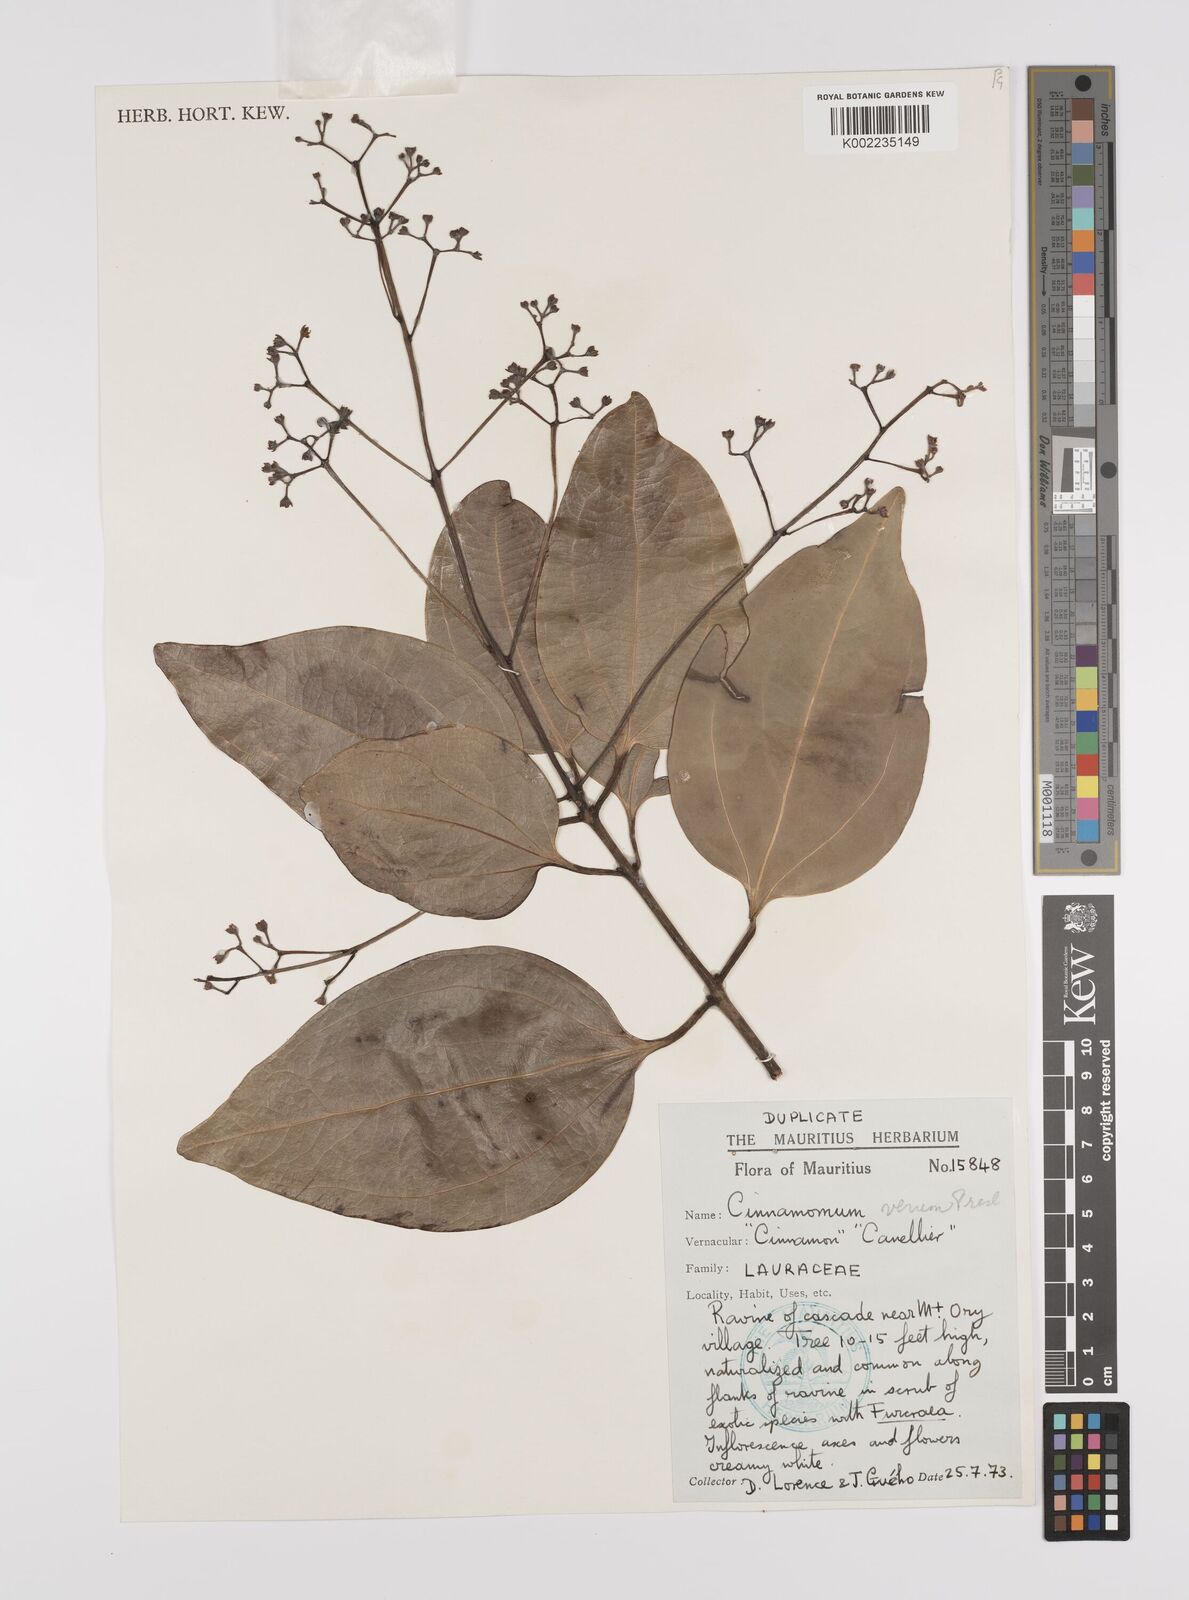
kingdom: Plantae
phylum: Tracheophyta
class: Magnoliopsida
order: Laurales
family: Lauraceae
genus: Cinnamomum
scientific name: Cinnamomum verum
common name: Cinnamon
